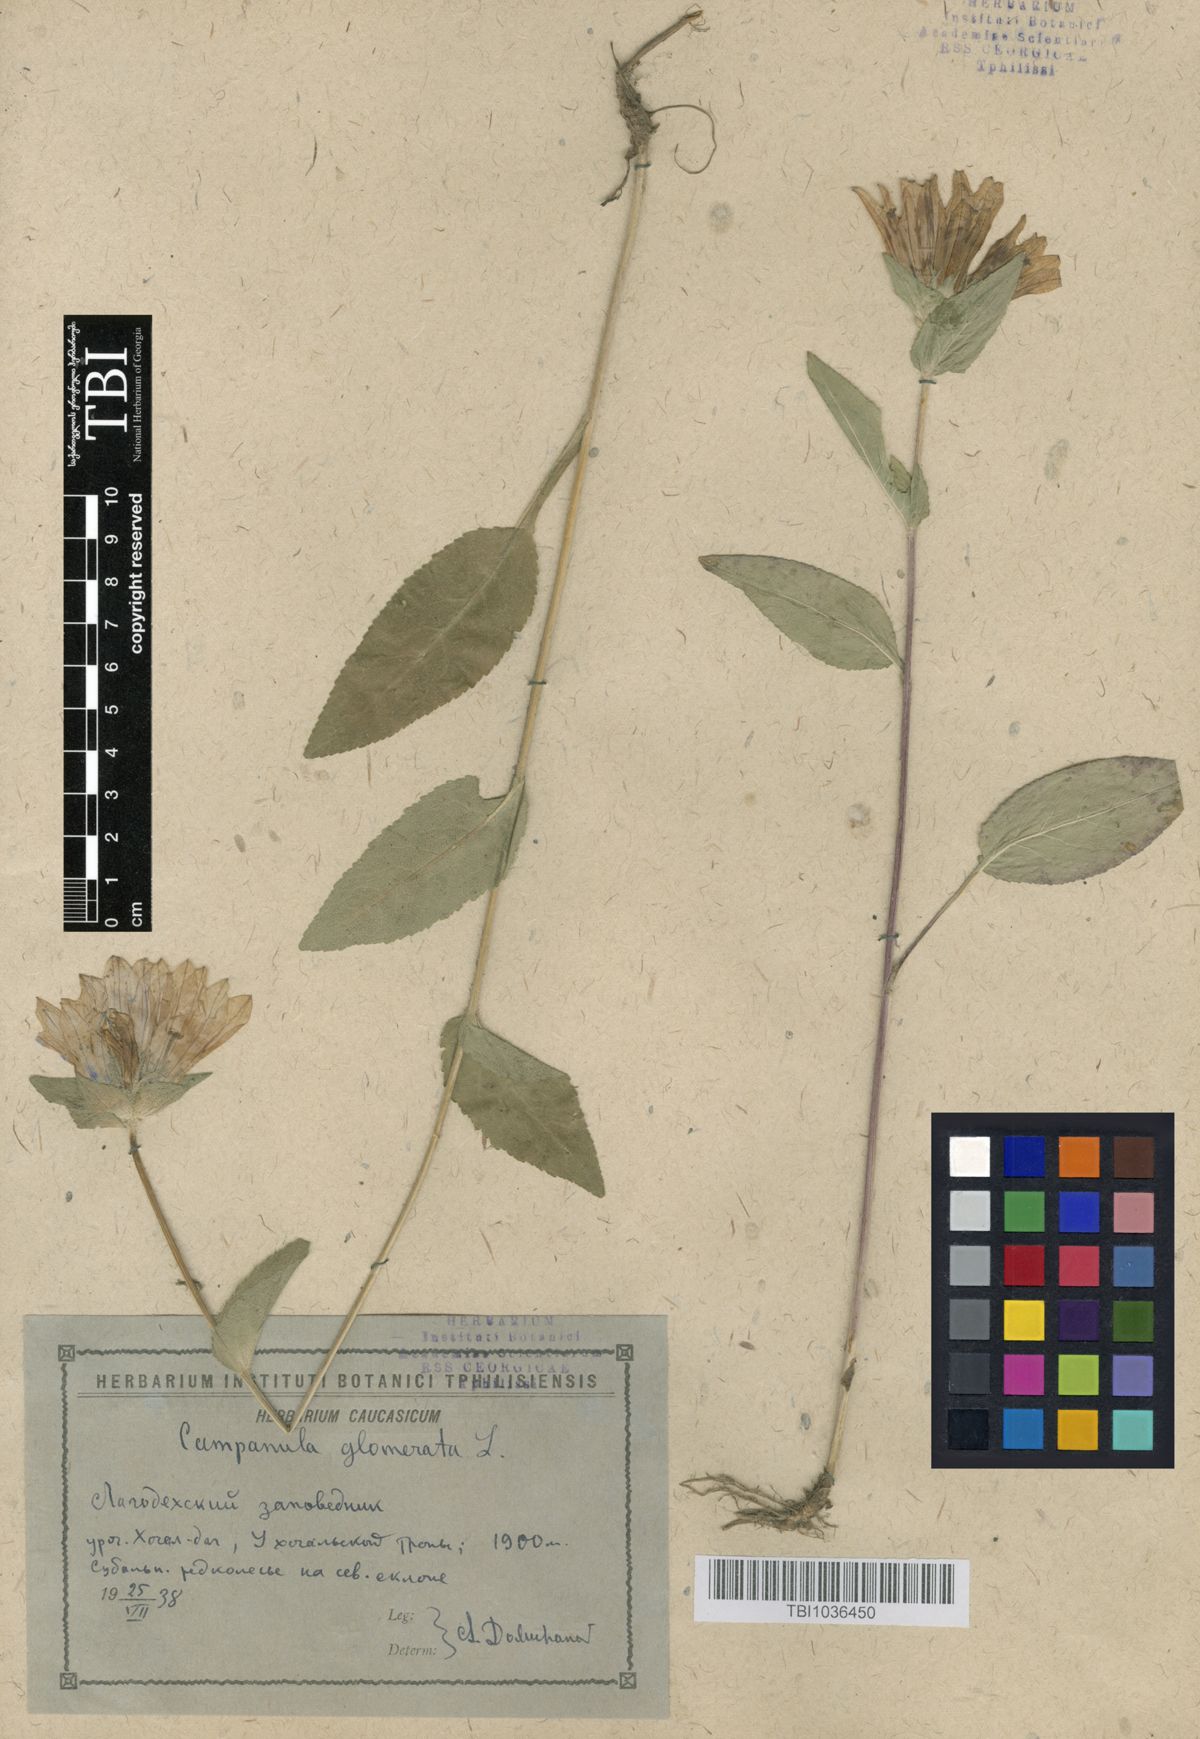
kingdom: Plantae
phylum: Tracheophyta
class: Magnoliopsida
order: Asterales
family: Campanulaceae
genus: Campanula
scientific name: Campanula glomerata
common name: Clustered bellflower
